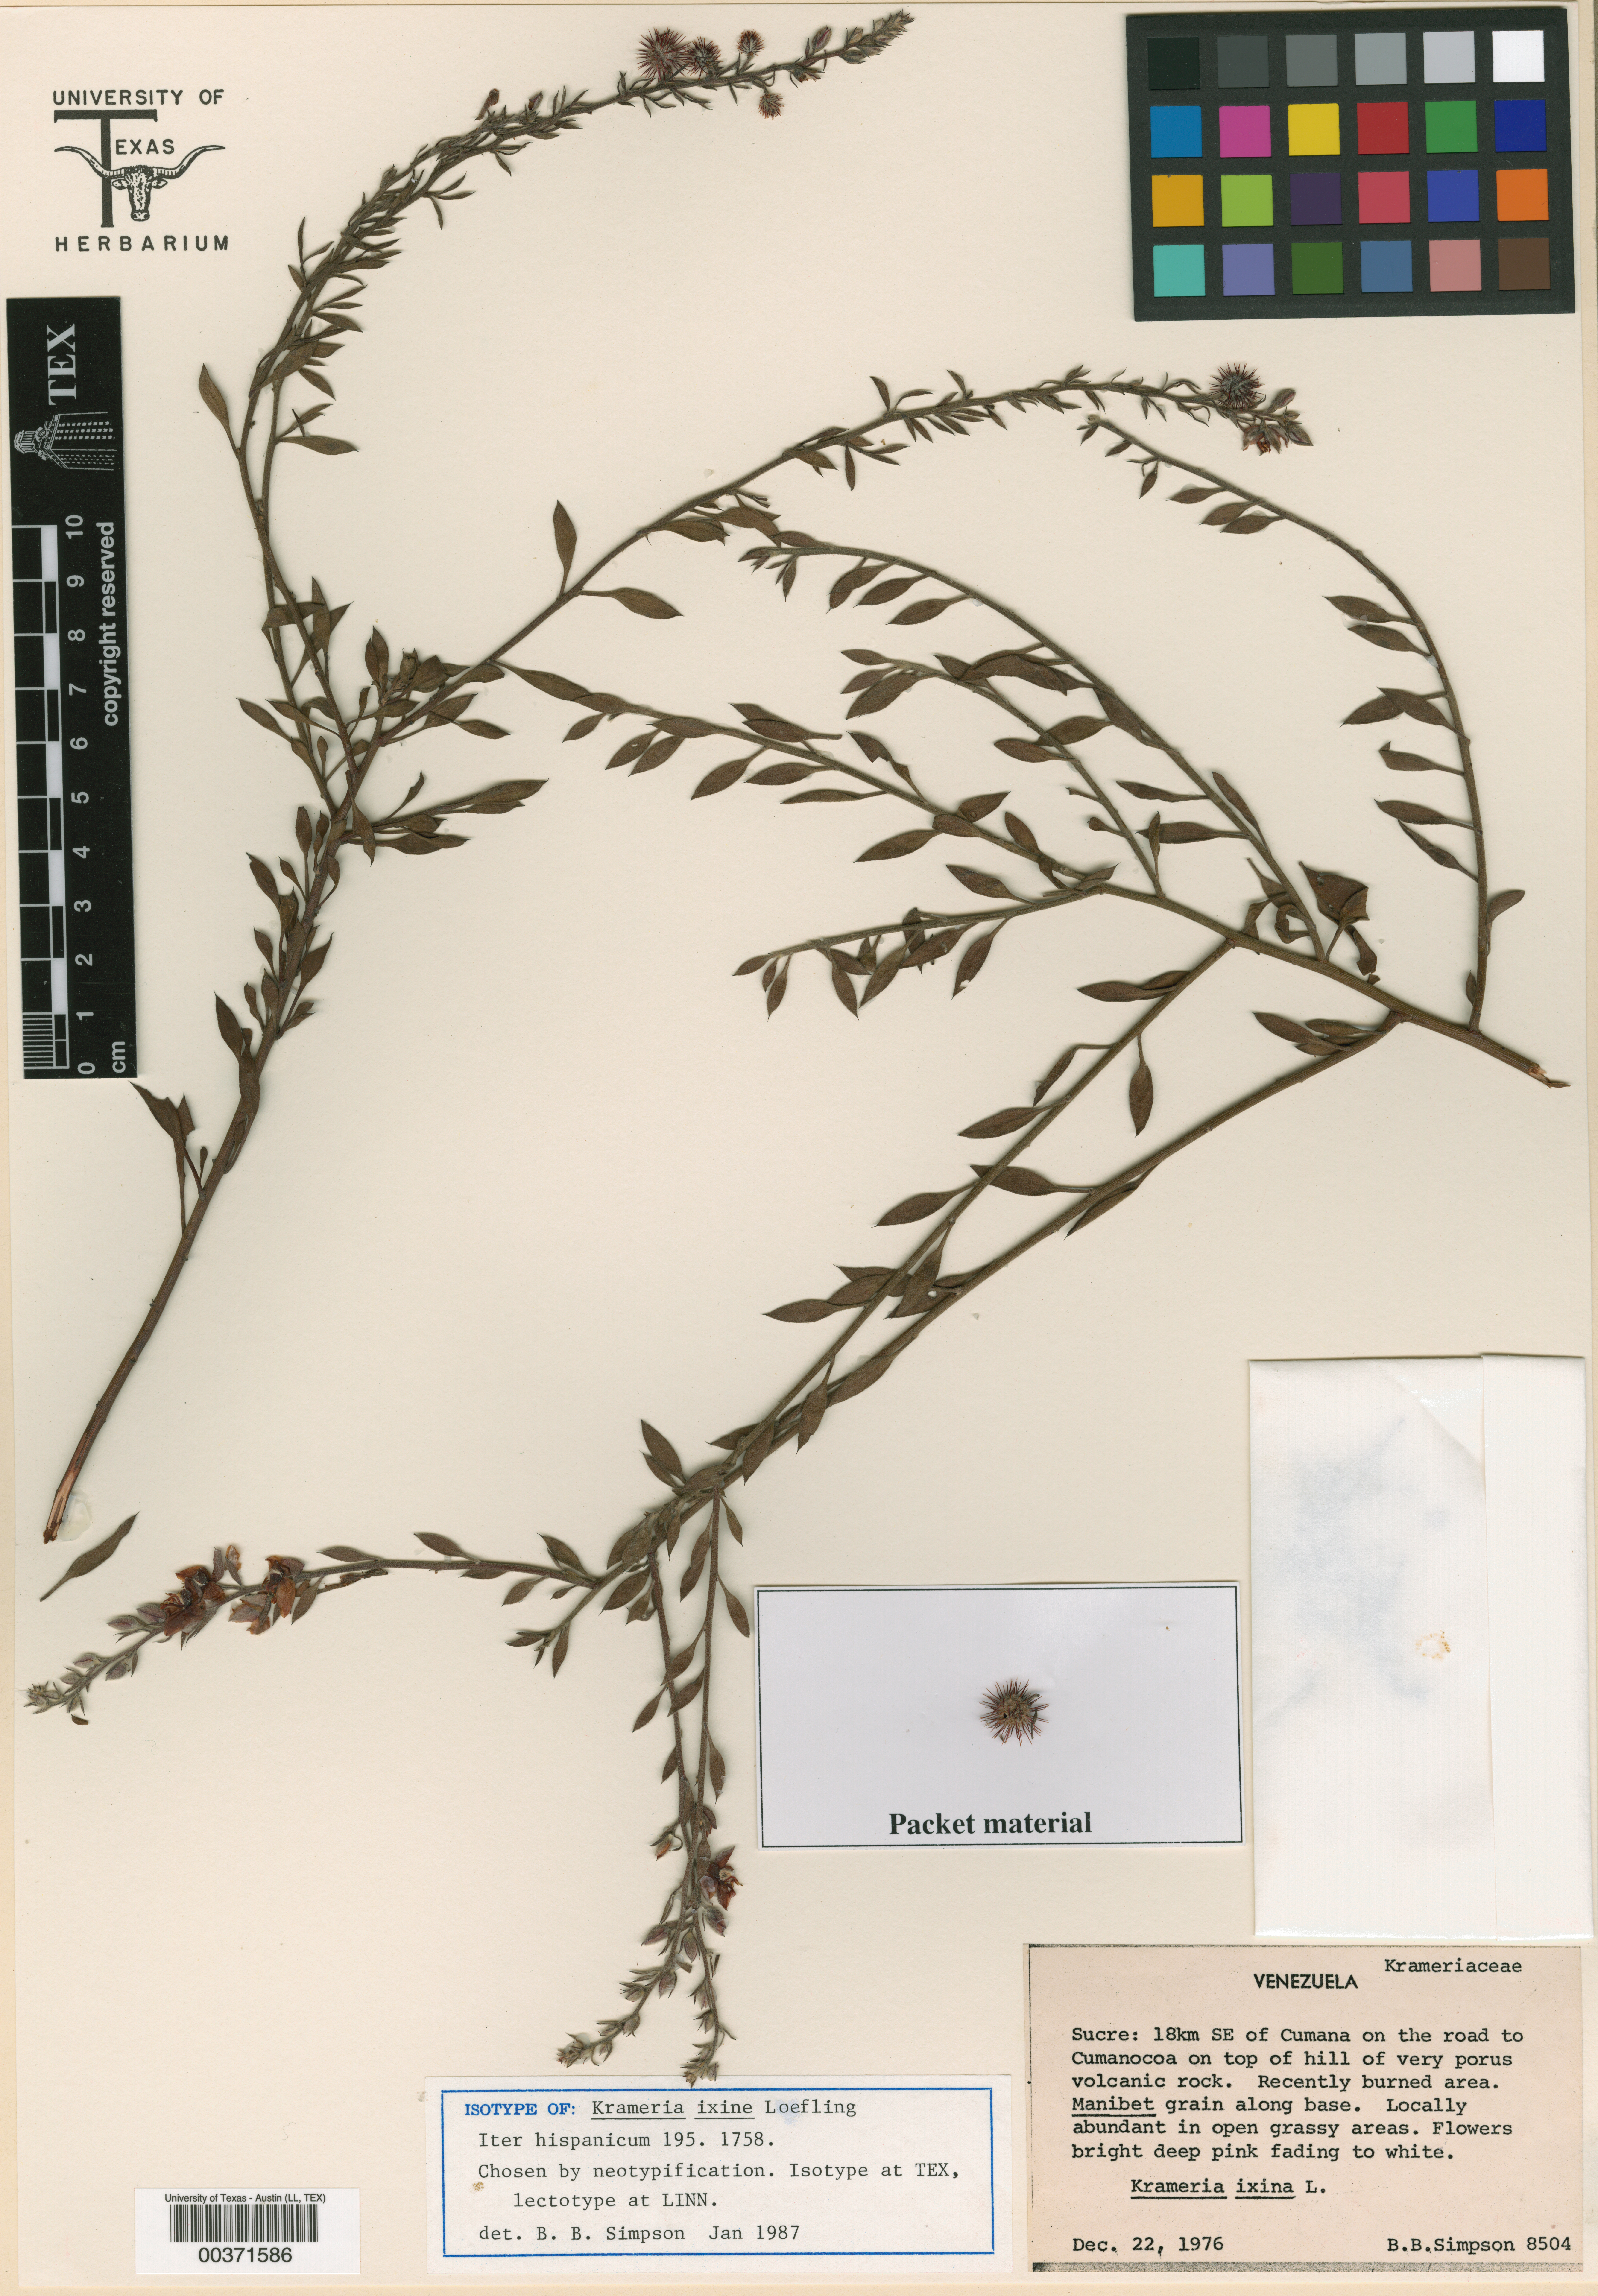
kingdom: Plantae
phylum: Tracheophyta
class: Magnoliopsida
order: Zygophyllales
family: Krameriaceae
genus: Krameria
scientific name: Krameria ixine
